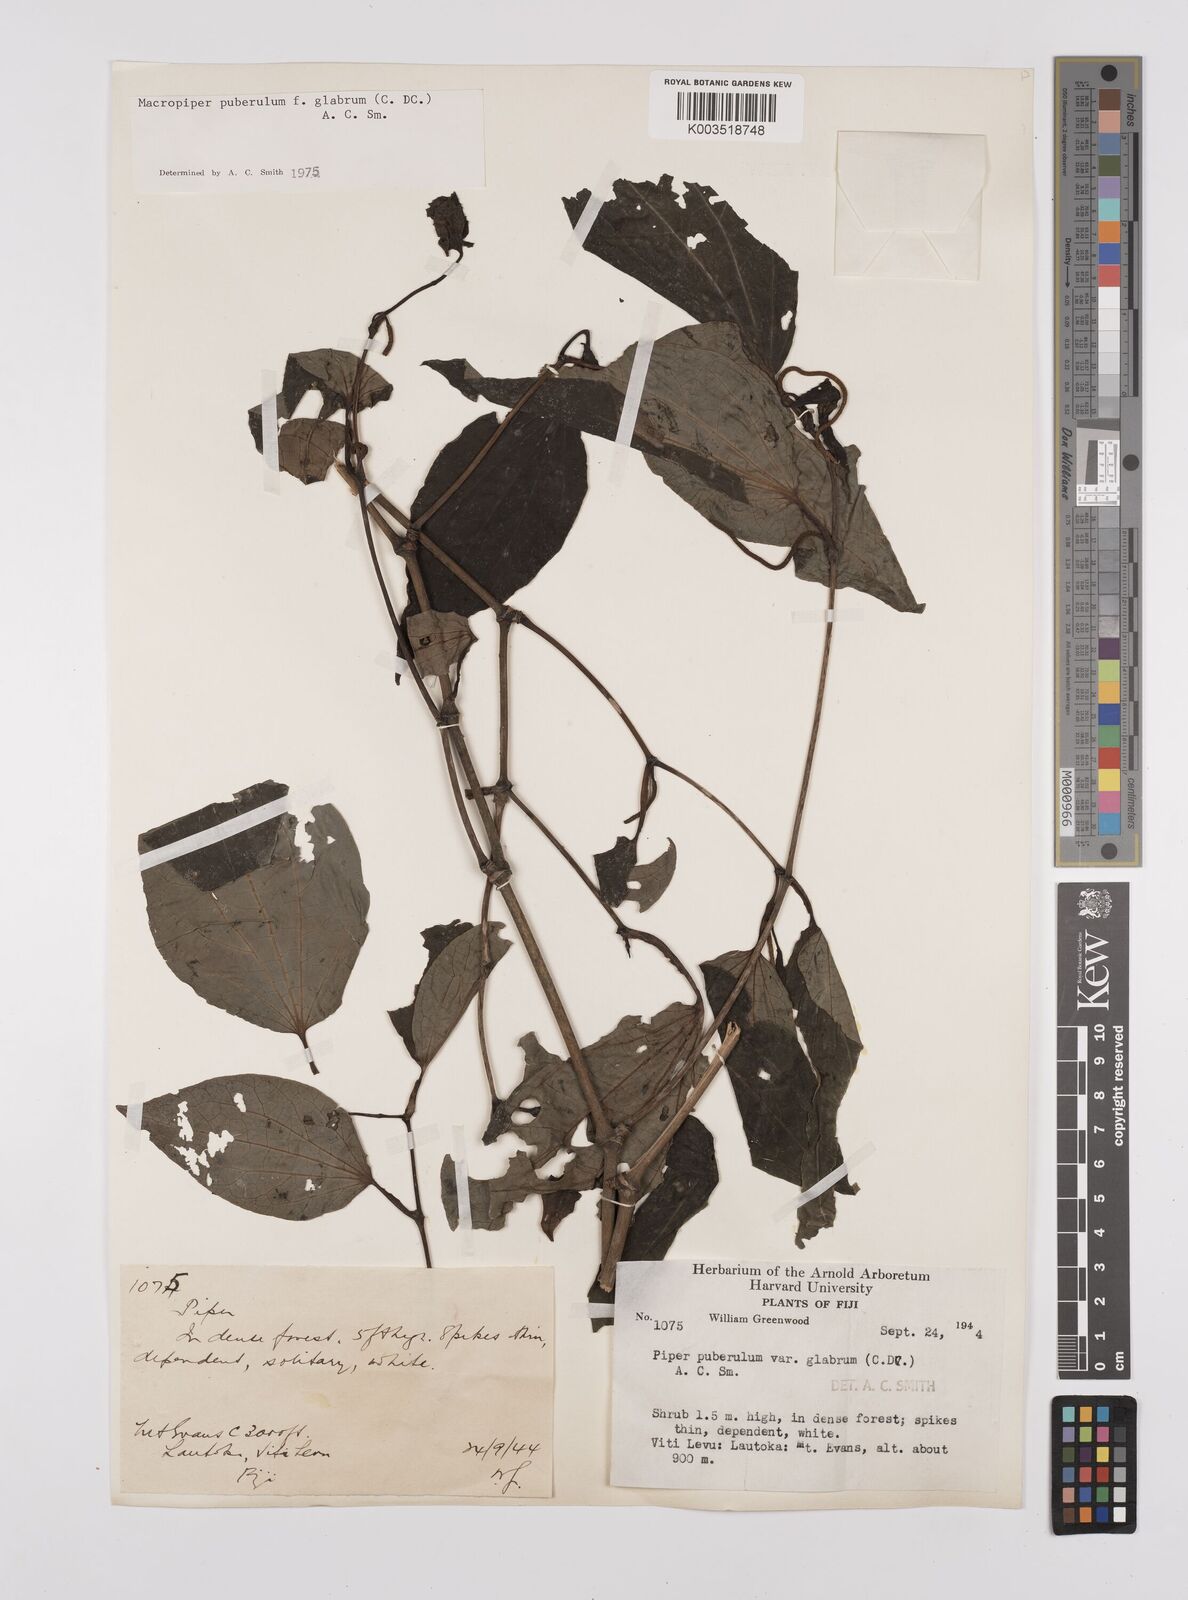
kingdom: Plantae
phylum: Tracheophyta
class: Magnoliopsida
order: Piperales
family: Piperaceae
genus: Macropiper
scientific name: Macropiper puberulum
